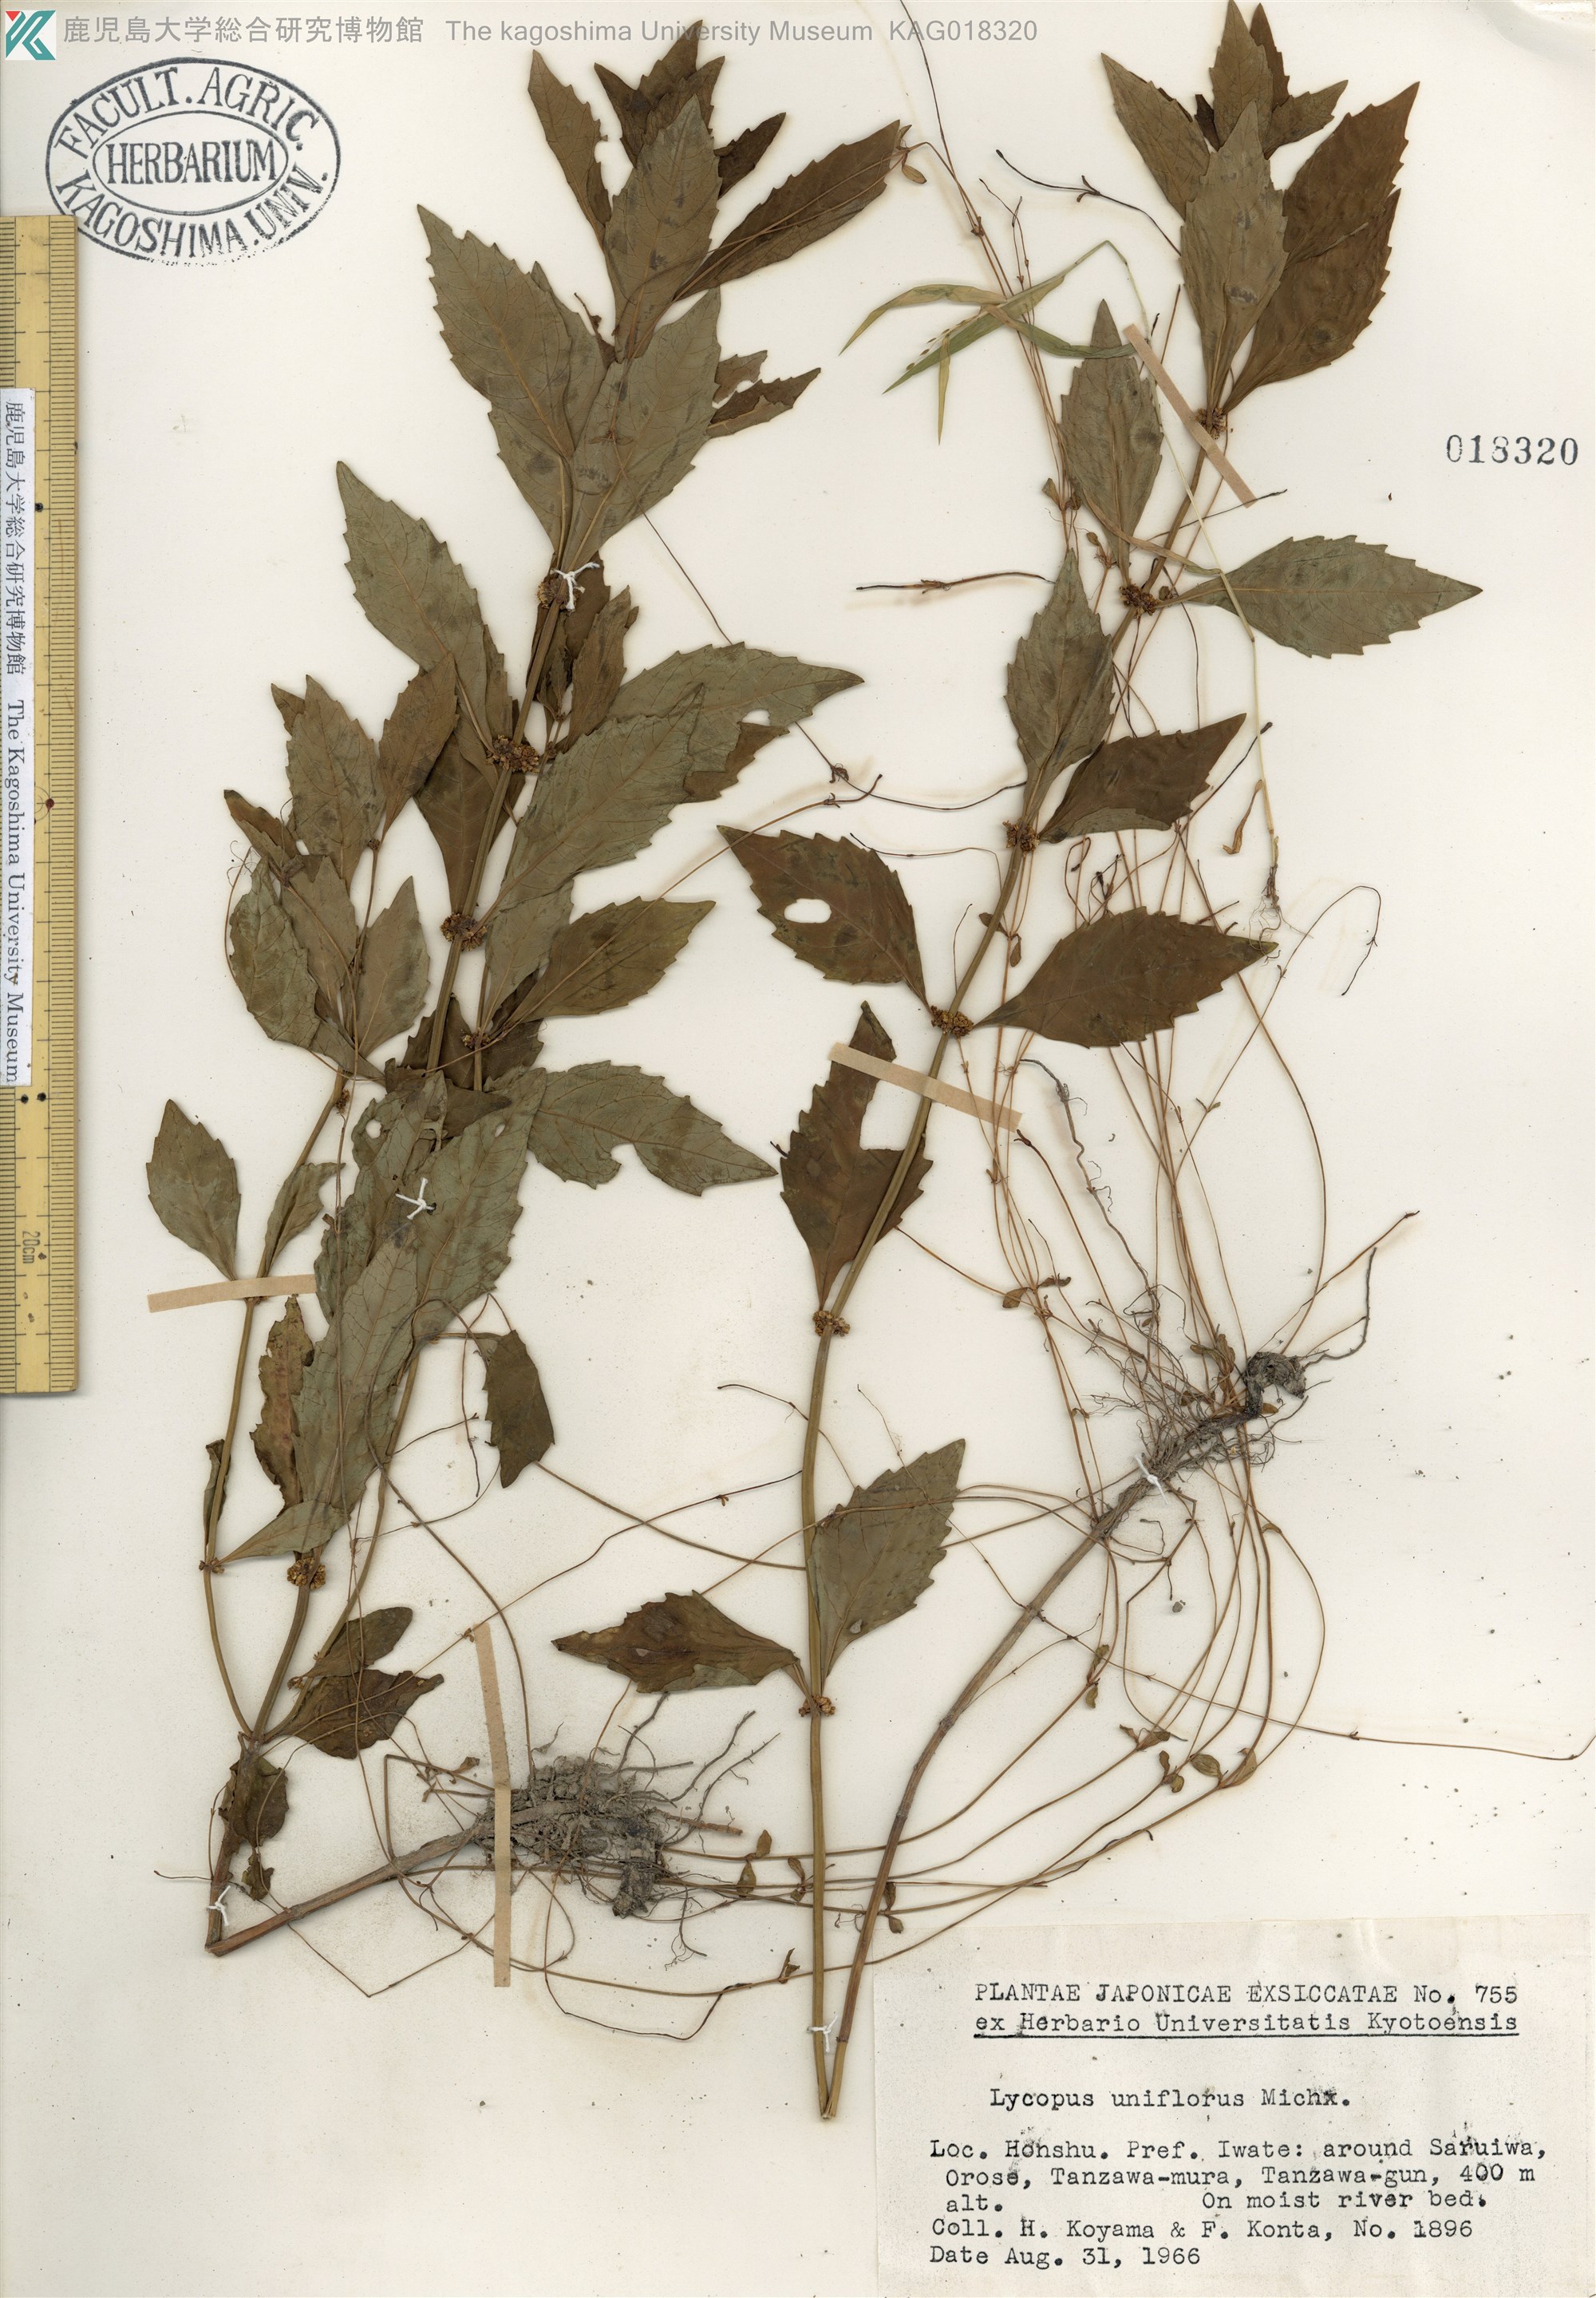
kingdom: Plantae
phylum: Tracheophyta
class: Magnoliopsida
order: Lamiales
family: Lamiaceae
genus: Lycopus
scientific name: Lycopus uniflorus
